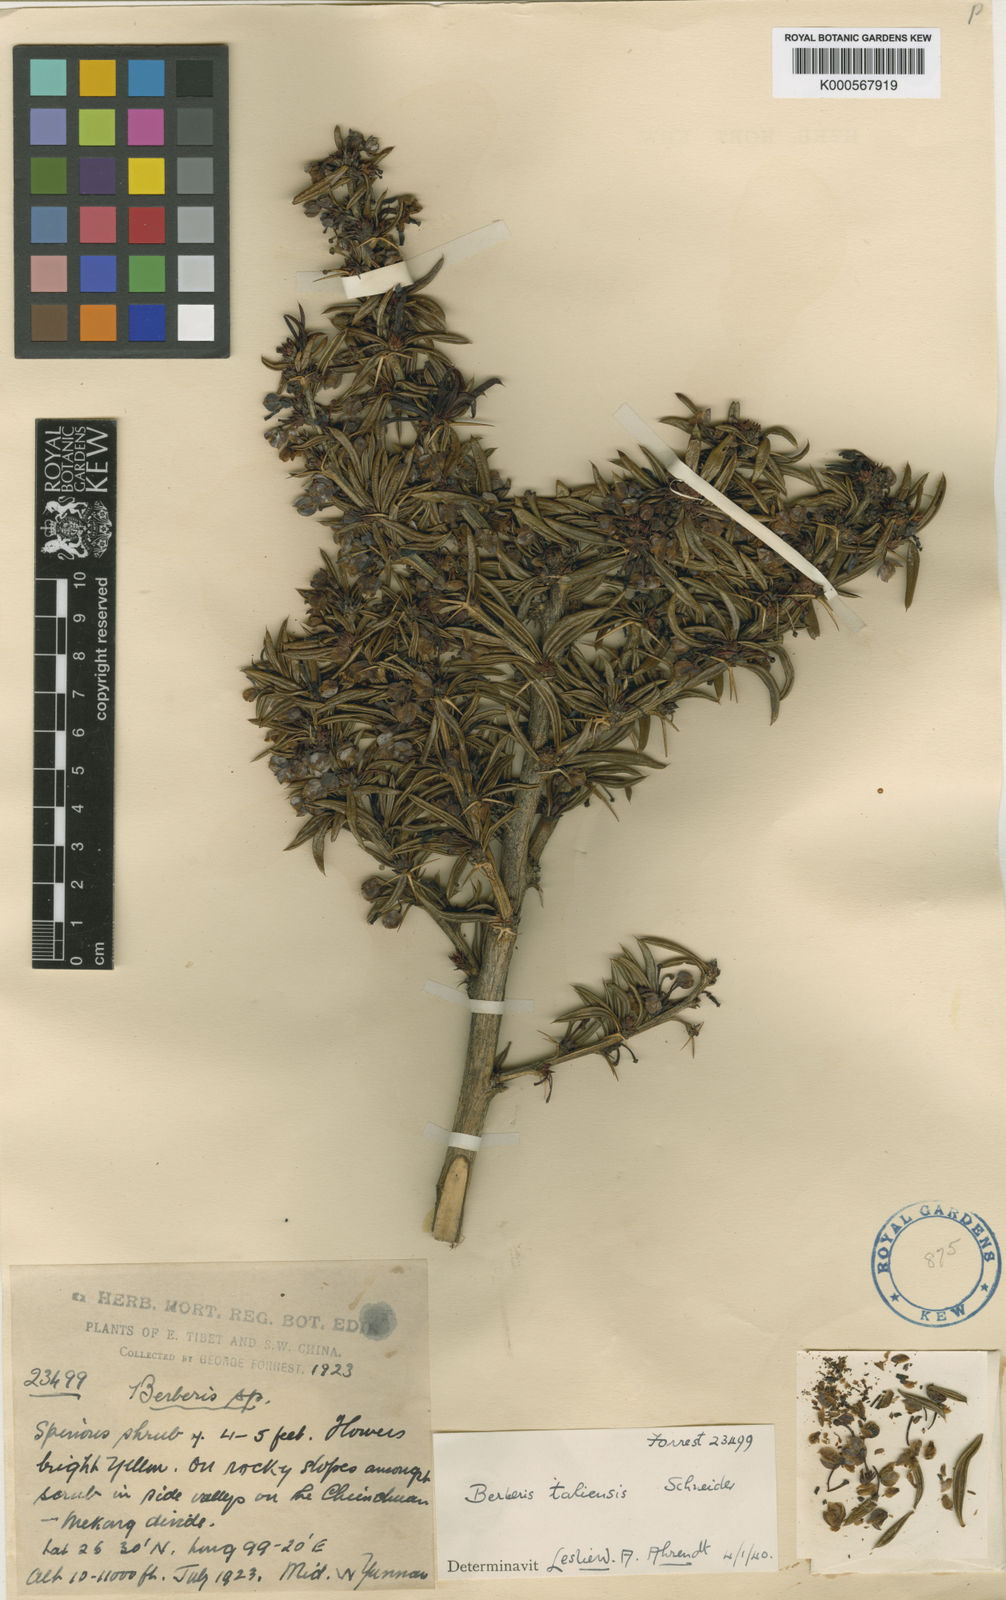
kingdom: Plantae
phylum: Tracheophyta
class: Magnoliopsida
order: Ranunculales
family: Berberidaceae
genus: Berberis
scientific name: Berberis taliensis
